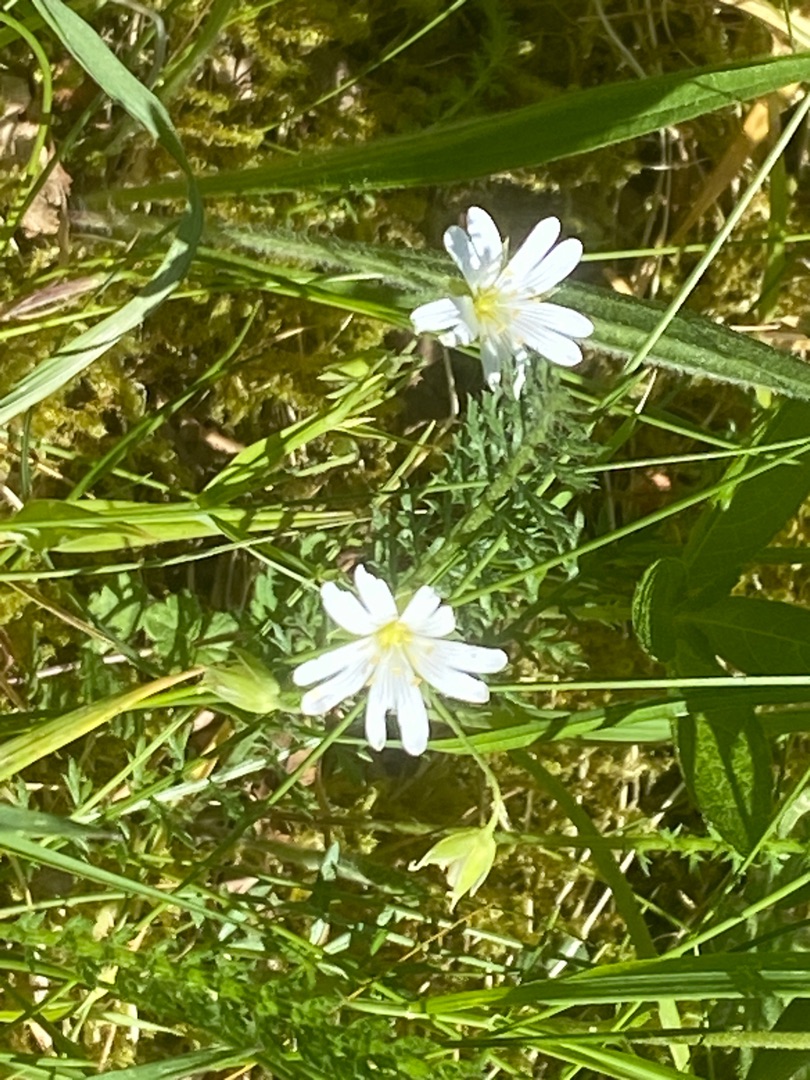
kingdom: Plantae
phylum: Tracheophyta
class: Magnoliopsida
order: Caryophyllales
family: Caryophyllaceae
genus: Rabelera
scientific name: Rabelera holostea
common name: Stor fladstjerne
